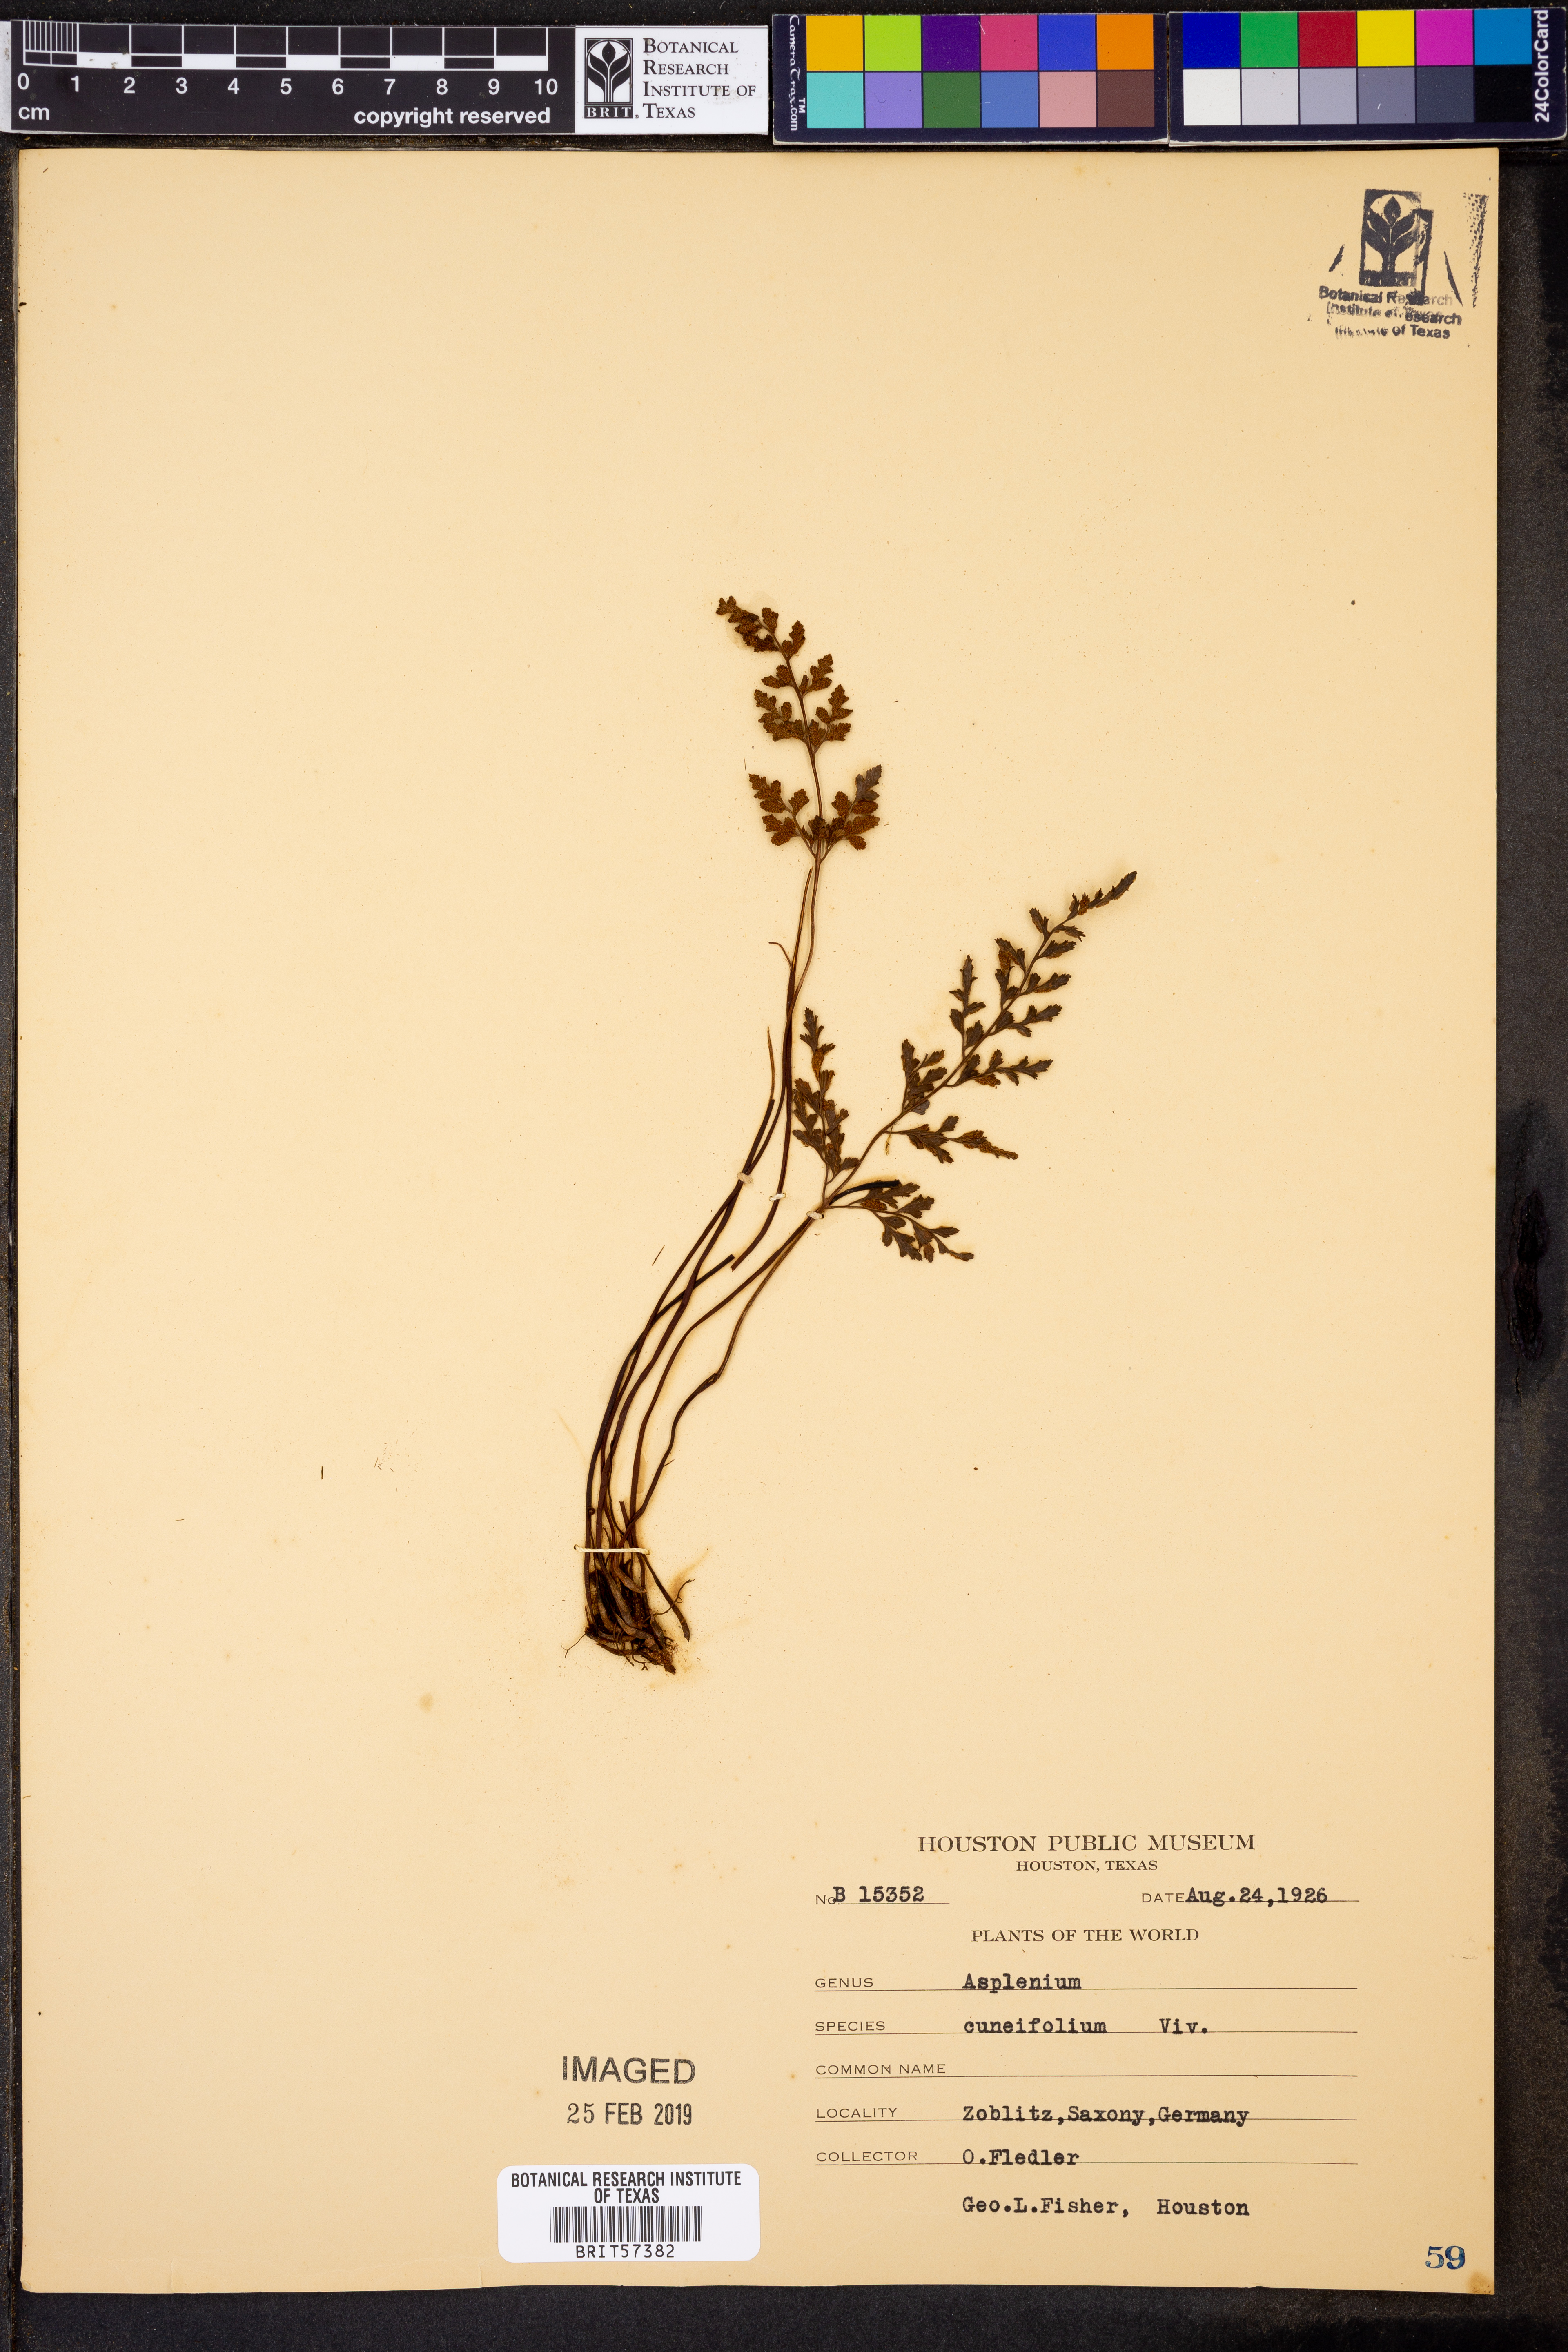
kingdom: Plantae
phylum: Tracheophyta
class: Polypodiopsida
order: Polypodiales
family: Aspleniaceae
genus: Asplenium
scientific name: Asplenium cuneifolium
